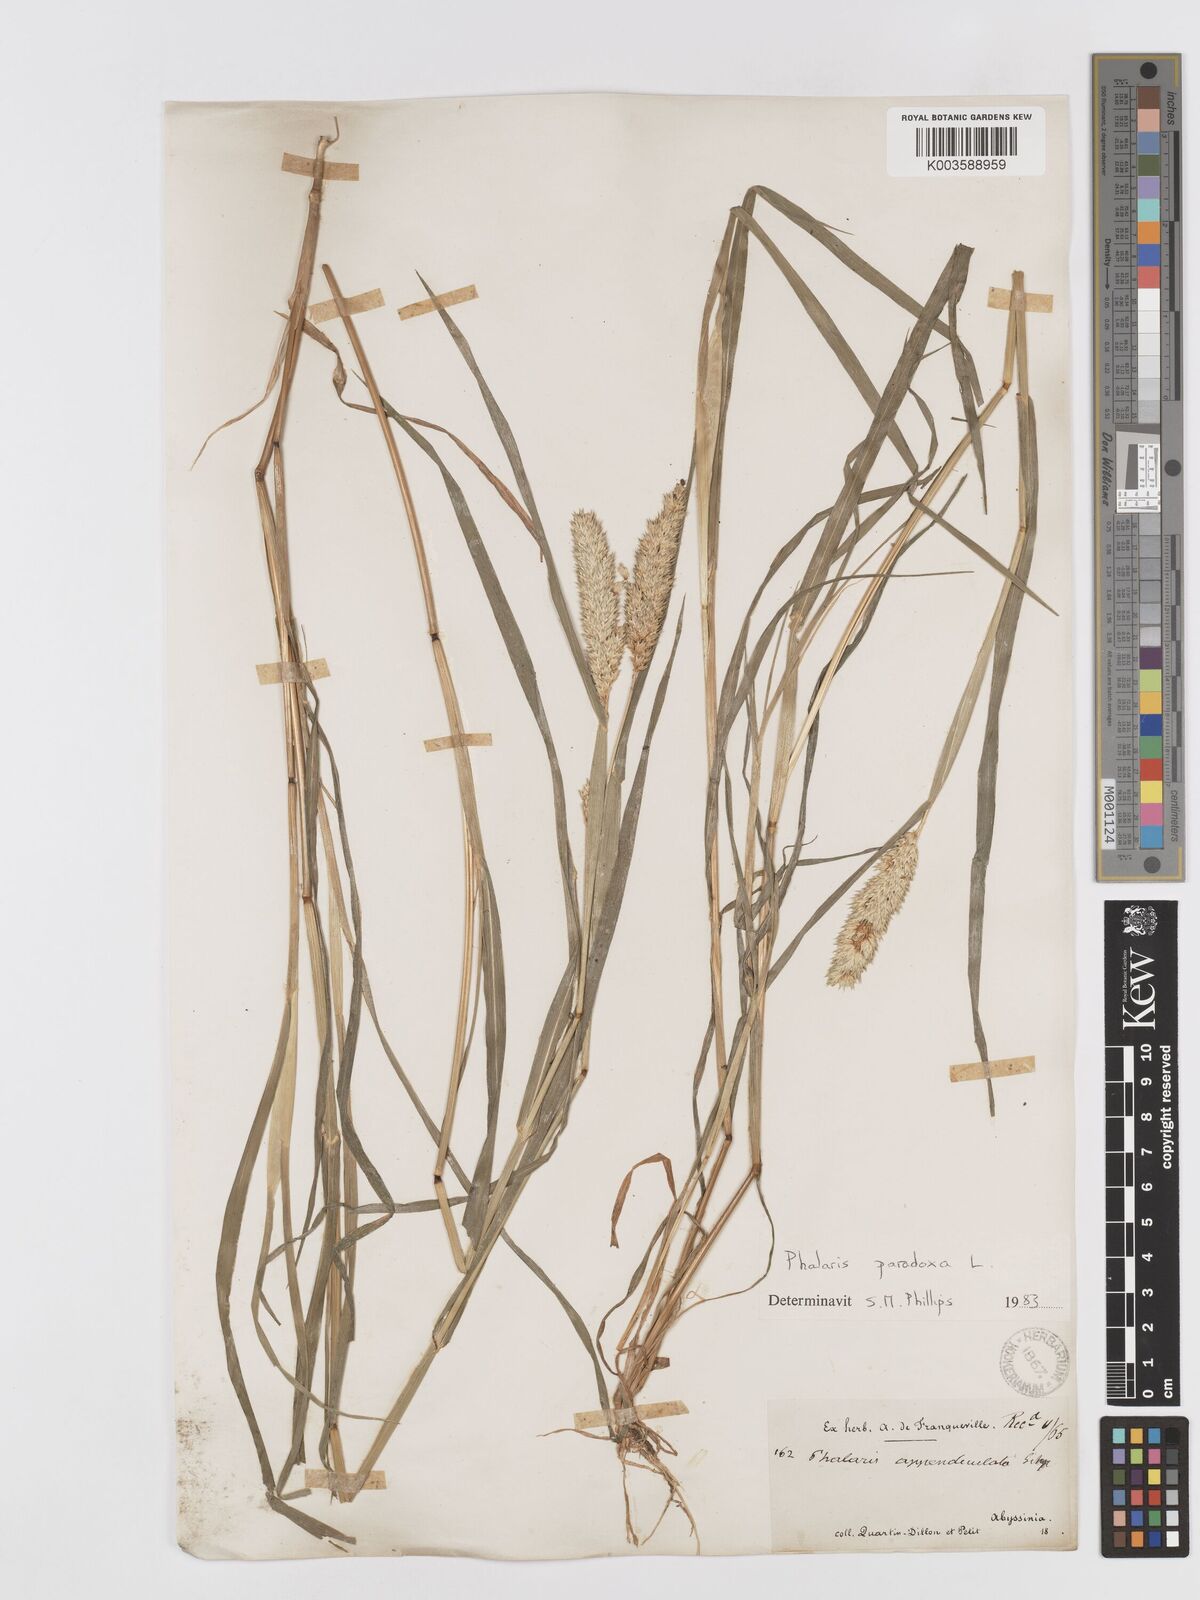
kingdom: Plantae
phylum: Tracheophyta
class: Liliopsida
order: Poales
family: Poaceae
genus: Phalaris
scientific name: Phalaris paradoxa
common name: Awned canary-grass
